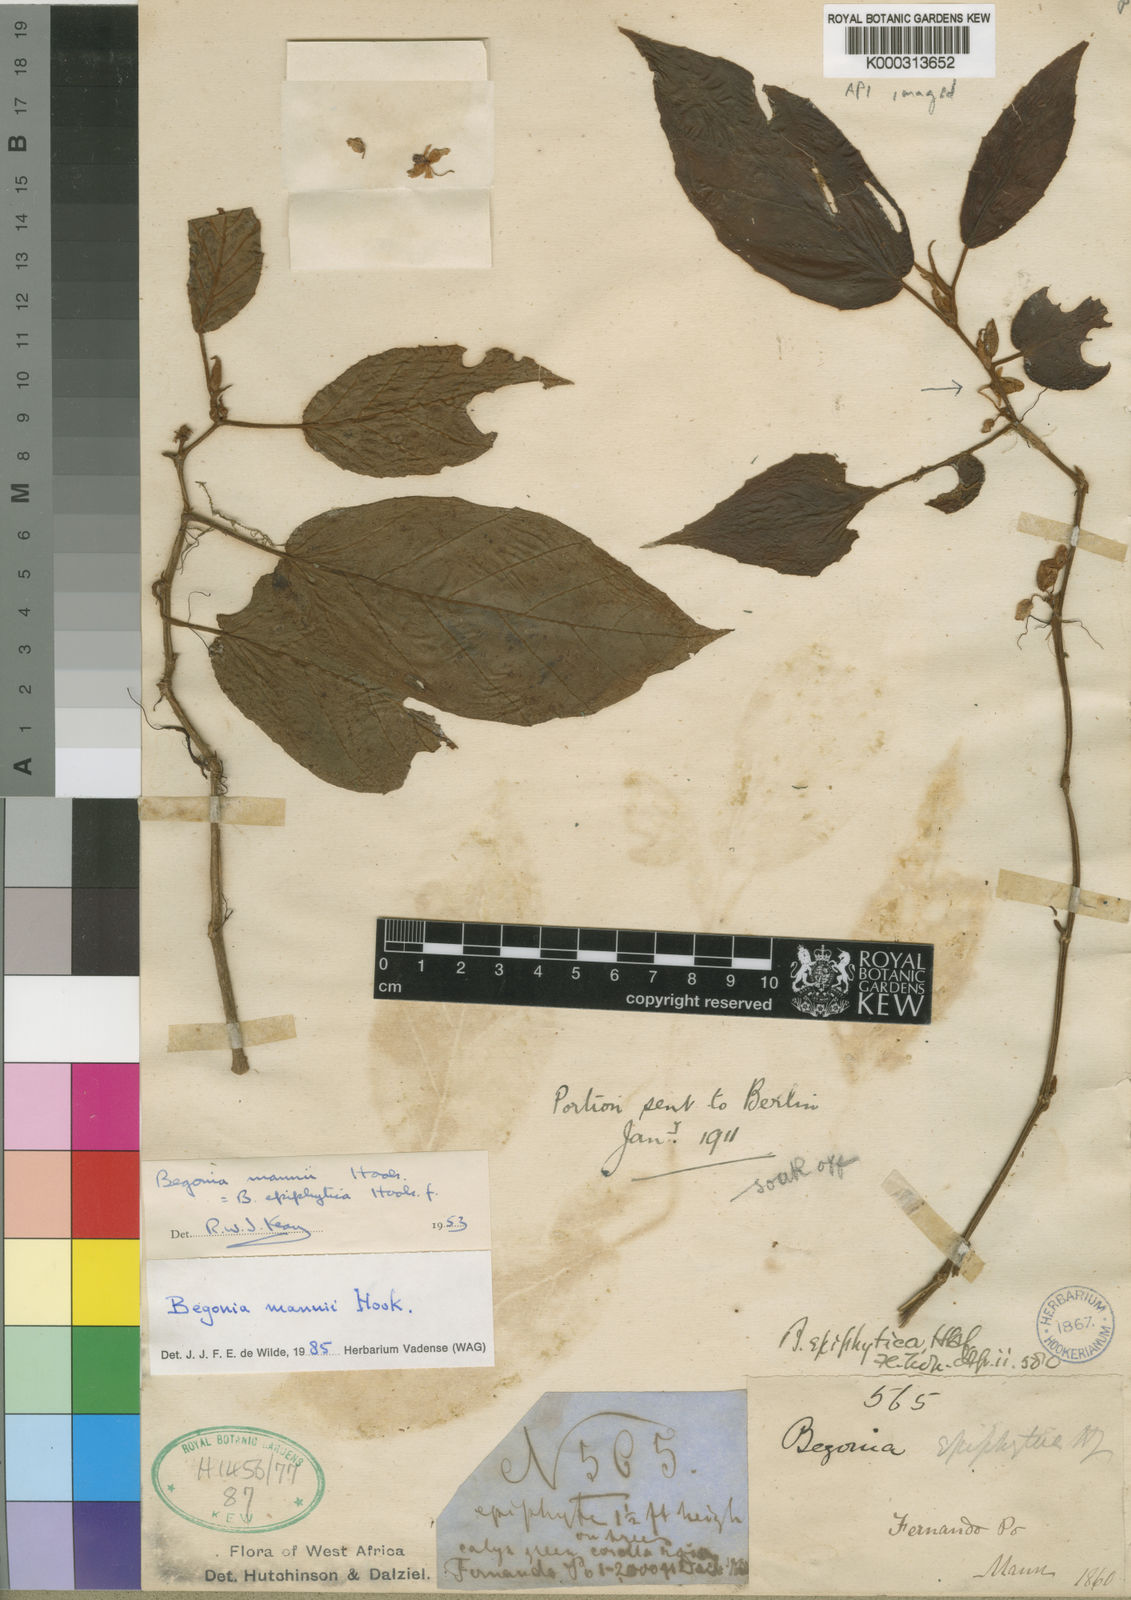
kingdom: Plantae
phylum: Tracheophyta
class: Magnoliopsida
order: Cucurbitales
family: Begoniaceae
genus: Begonia
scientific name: Begonia mannii
